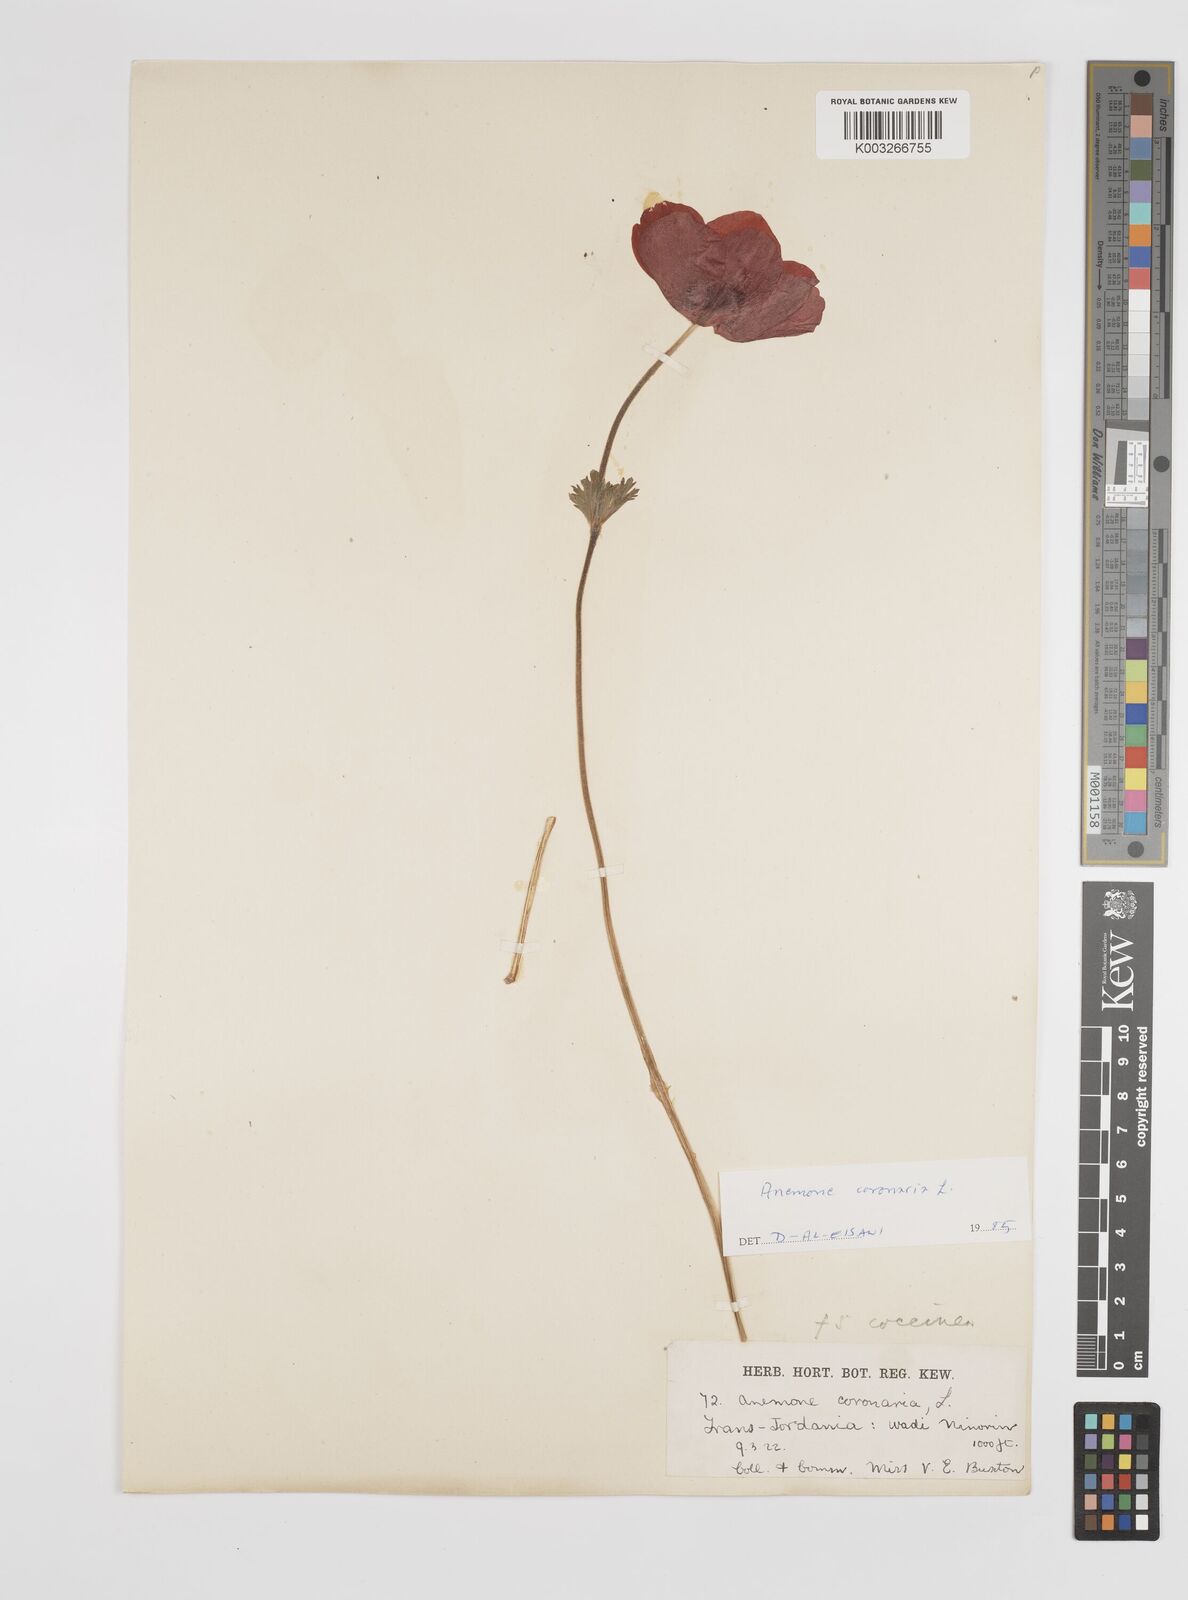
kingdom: Plantae
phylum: Tracheophyta
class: Magnoliopsida
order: Ranunculales
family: Ranunculaceae
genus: Anemone
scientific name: Anemone coronaria
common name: Poppy anemone
